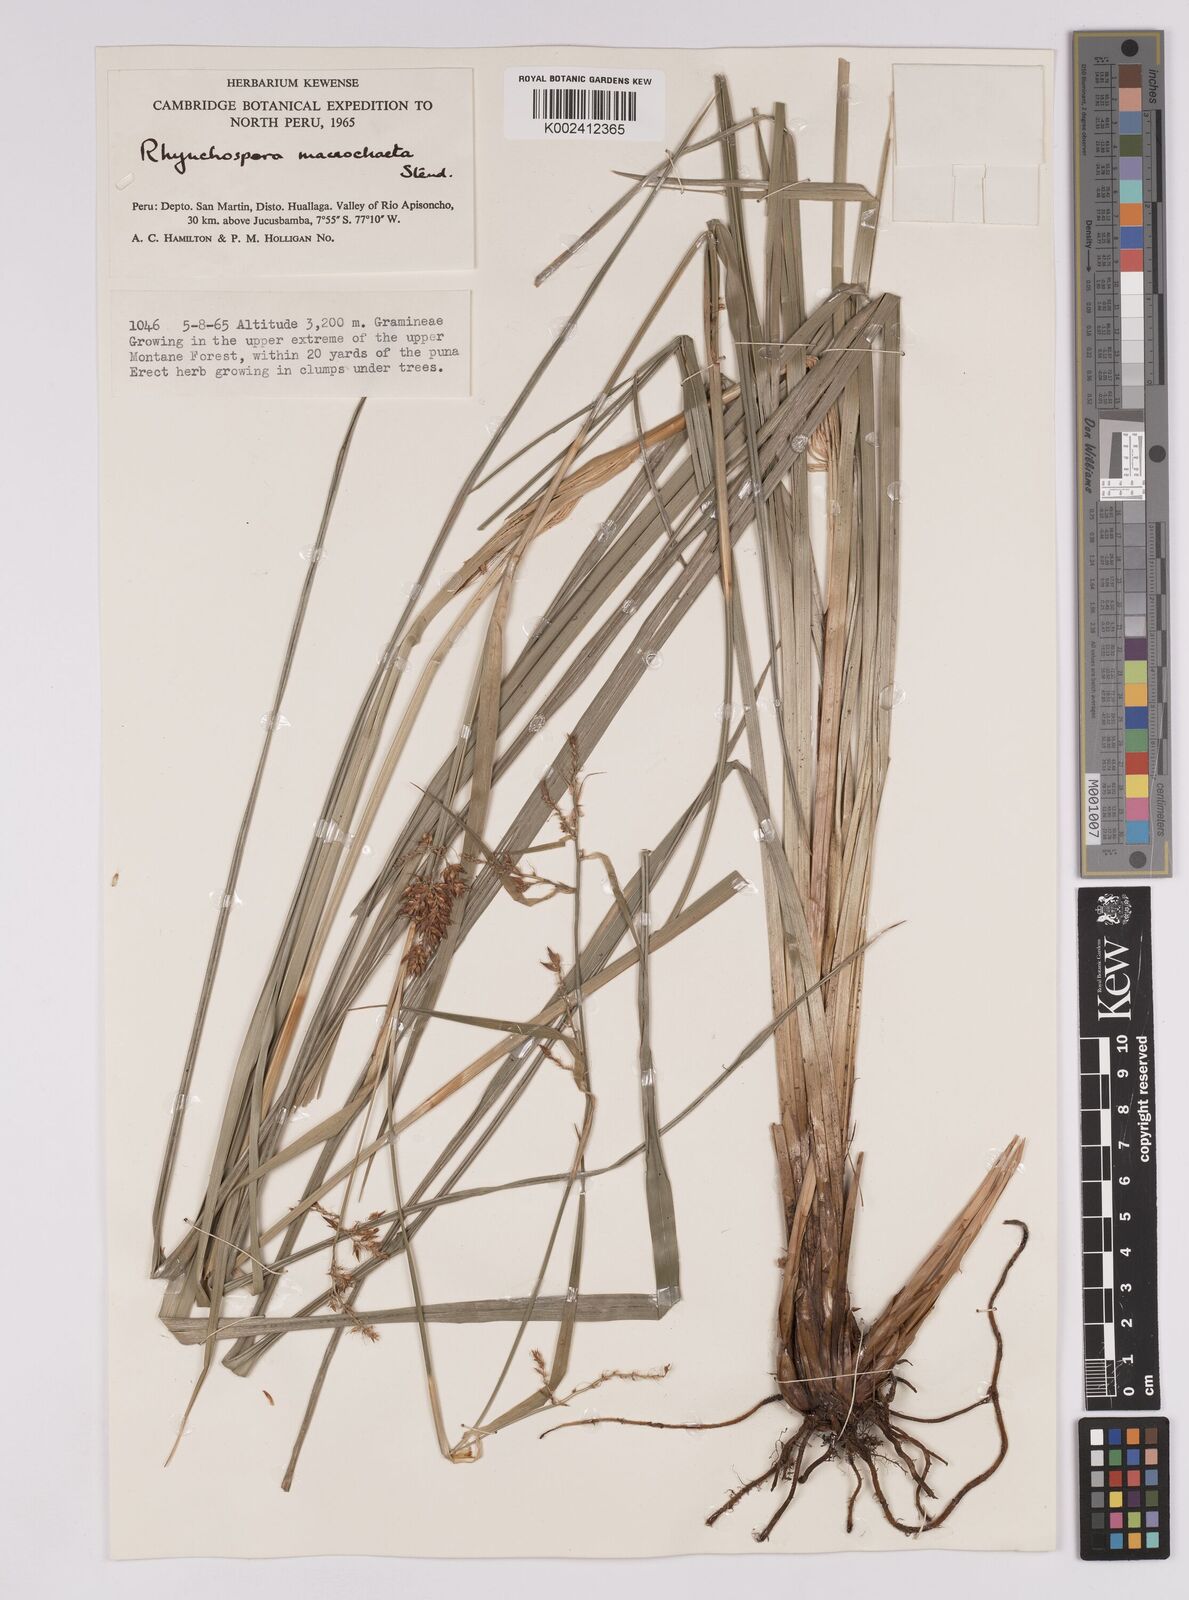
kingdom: Plantae
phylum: Tracheophyta
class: Liliopsida
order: Poales
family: Cyperaceae
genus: Rhynchospora
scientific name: Rhynchospora macrochaeta
